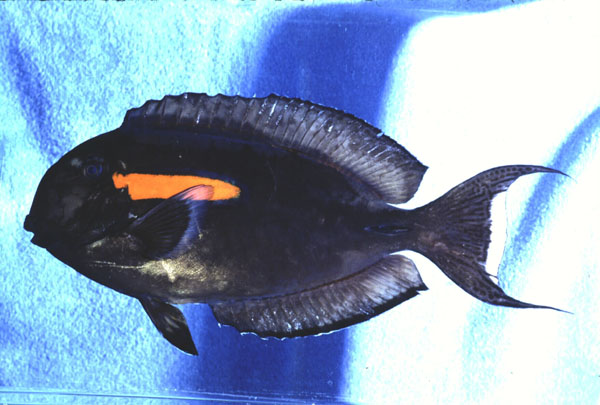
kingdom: Animalia
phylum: Chordata
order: Perciformes
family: Acanthuridae
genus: Acanthurus
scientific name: Acanthurus olivaceus
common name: Gendarme fish
